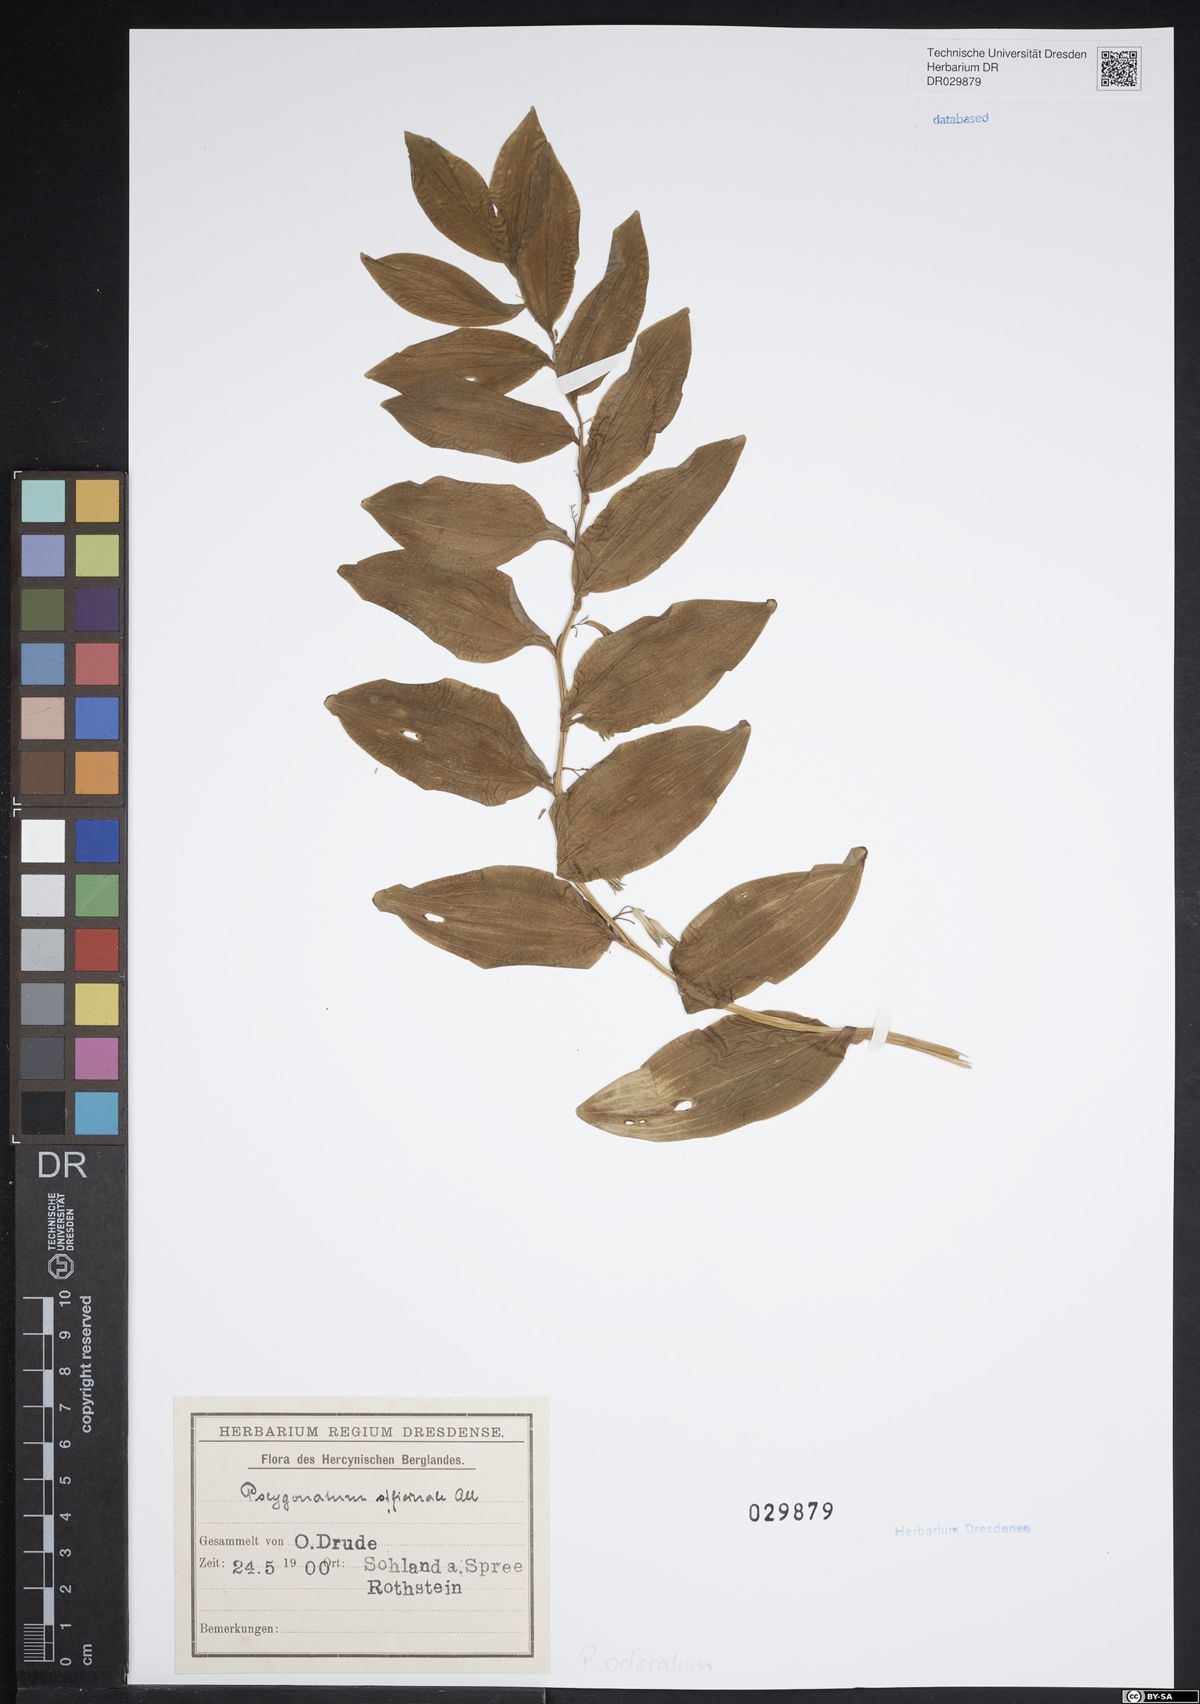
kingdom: Plantae
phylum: Tracheophyta
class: Liliopsida
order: Asparagales
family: Asparagaceae
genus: Polygonatum
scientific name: Polygonatum odoratum
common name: Angular solomon's-seal
